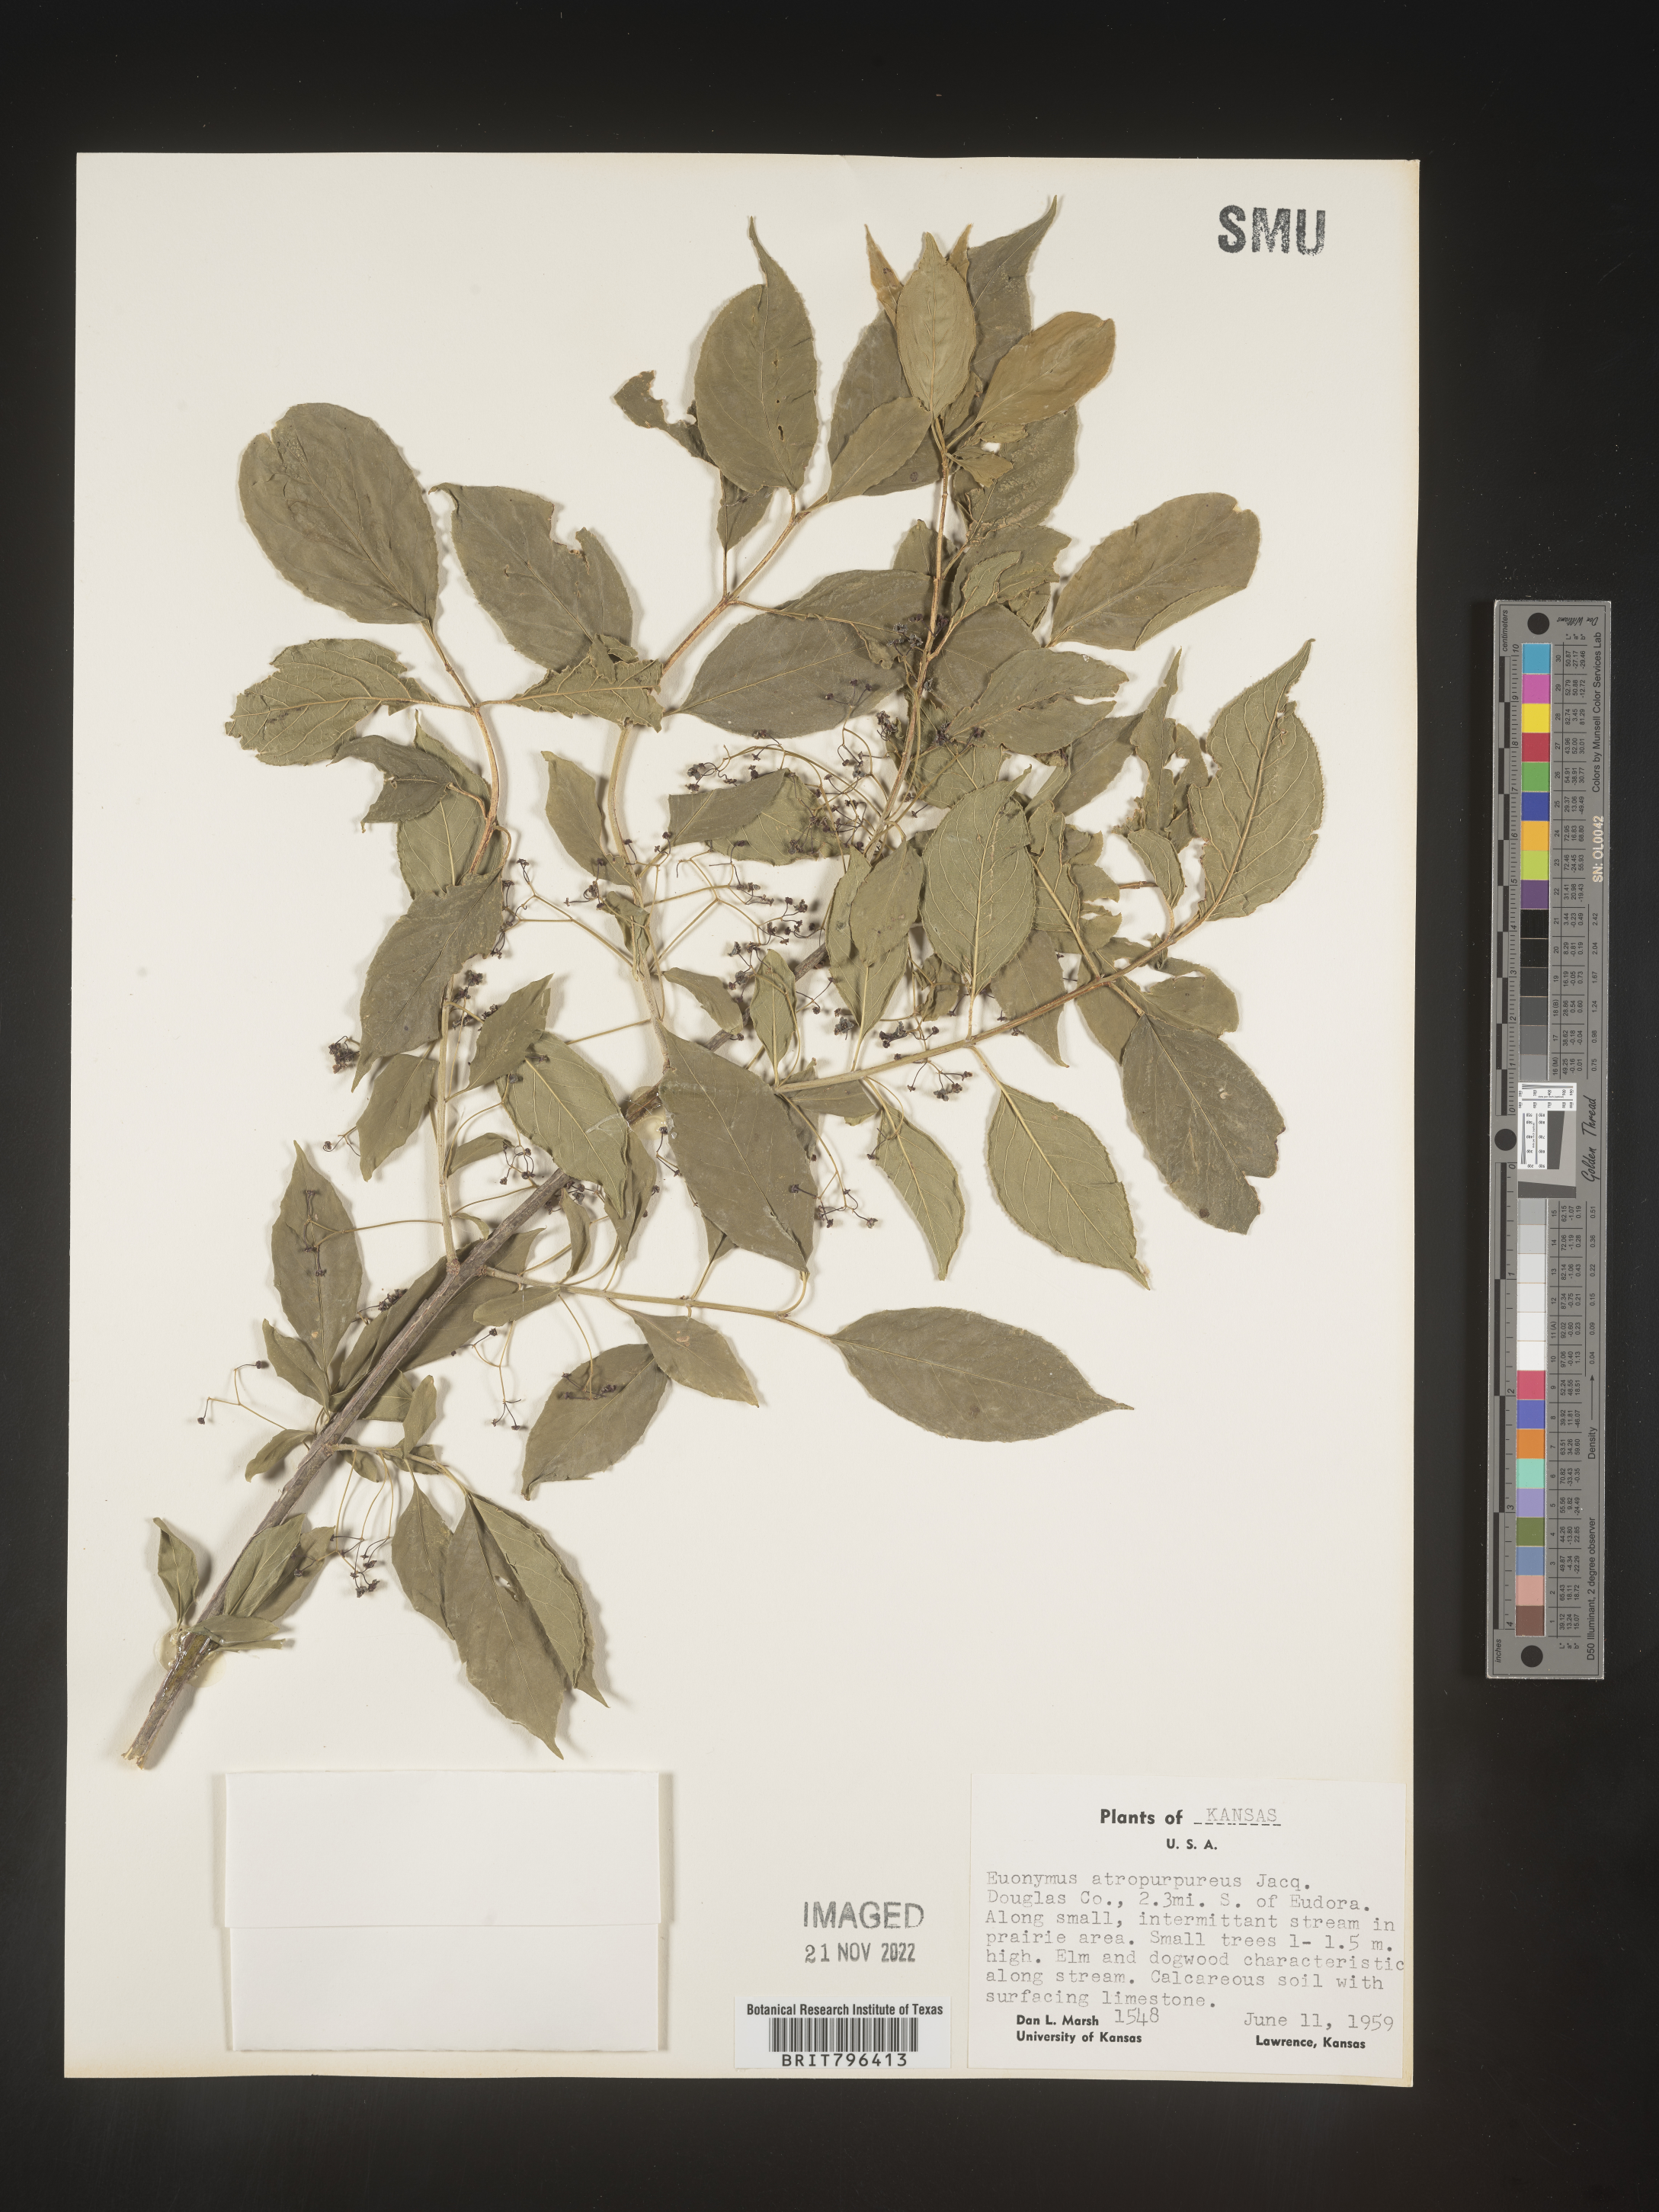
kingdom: Plantae
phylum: Tracheophyta
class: Magnoliopsida
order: Celastrales
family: Celastraceae
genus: Euonymus
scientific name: Euonymus atropurpureus
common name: Eastern wahoo
